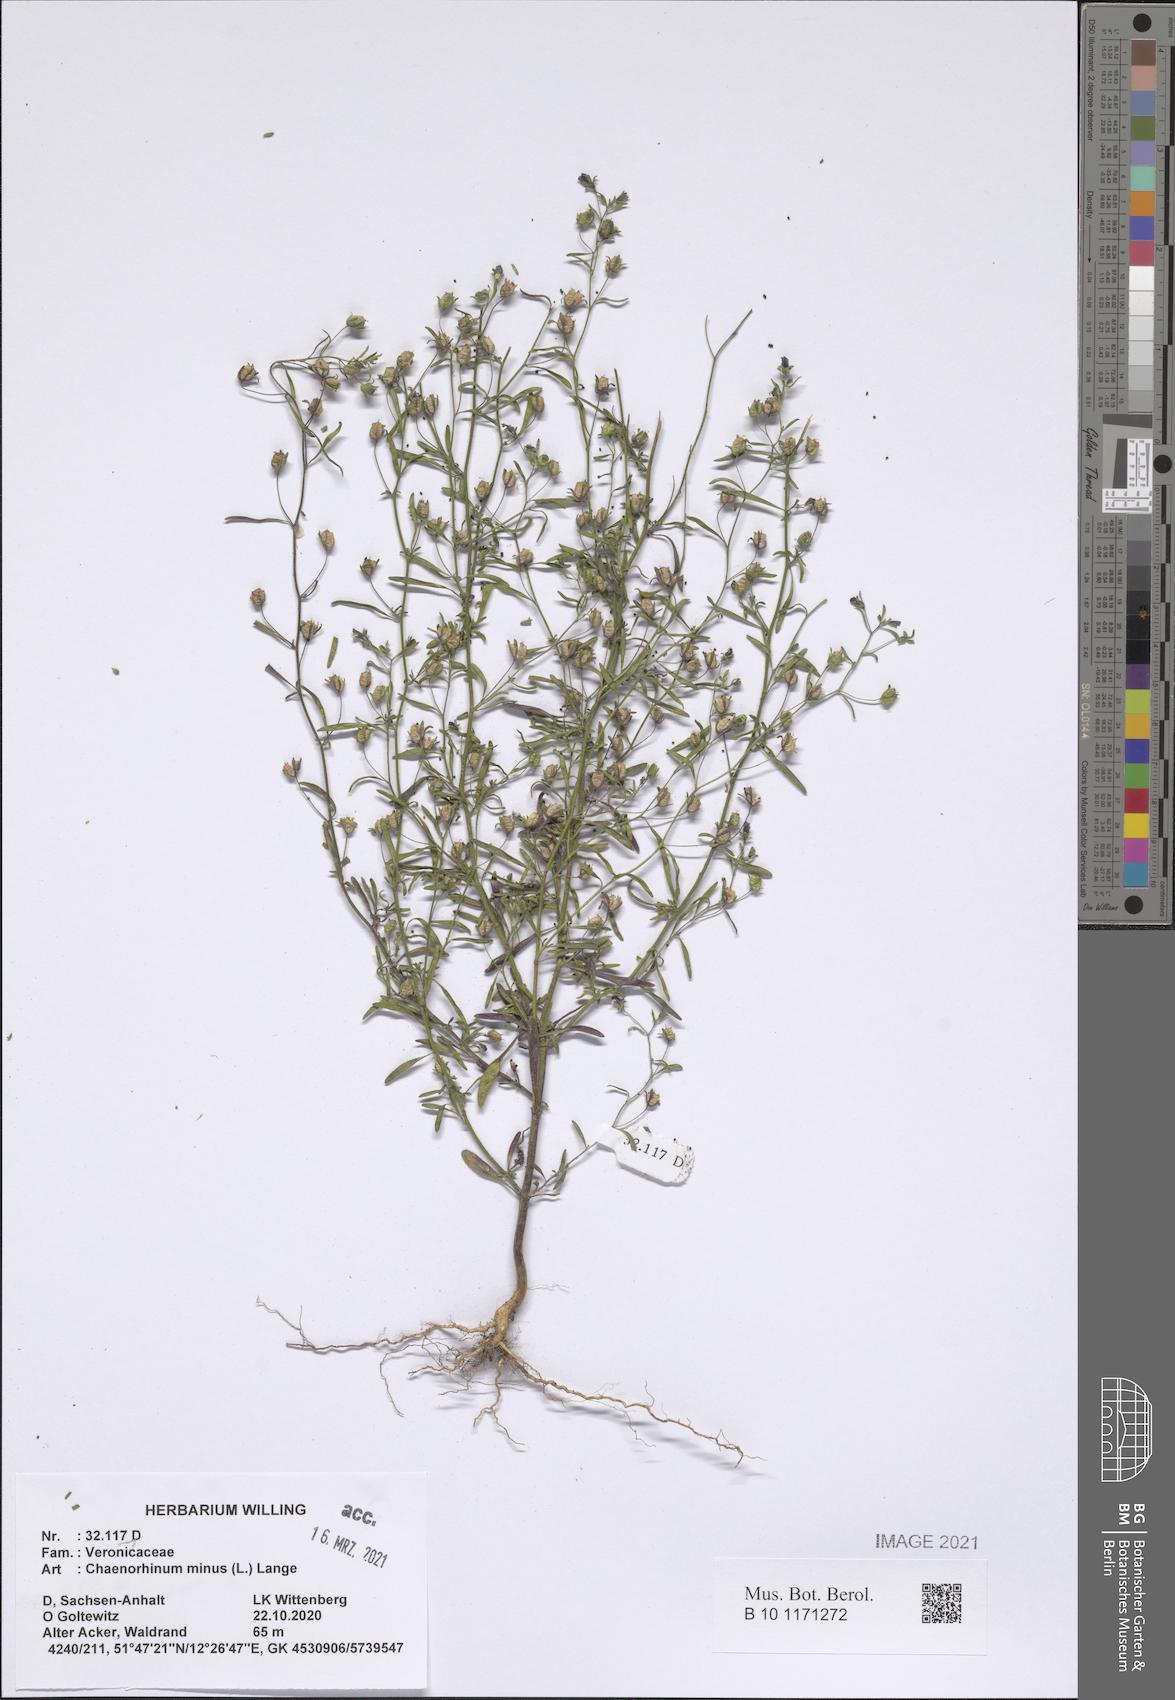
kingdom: Plantae
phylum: Tracheophyta
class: Magnoliopsida
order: Lamiales
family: Plantaginaceae
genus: Chaenorhinum
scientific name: Chaenorhinum minus
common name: Dwarf snapdragon
